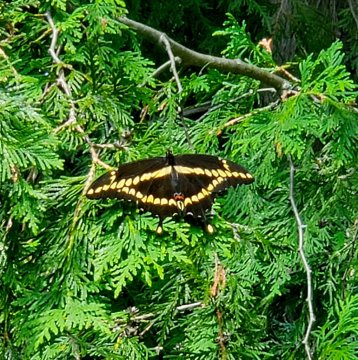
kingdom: Animalia
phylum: Arthropoda
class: Insecta
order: Lepidoptera
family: Papilionidae
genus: Papilio
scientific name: Papilio cresphontes
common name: Eastern Giant Swallowtail
